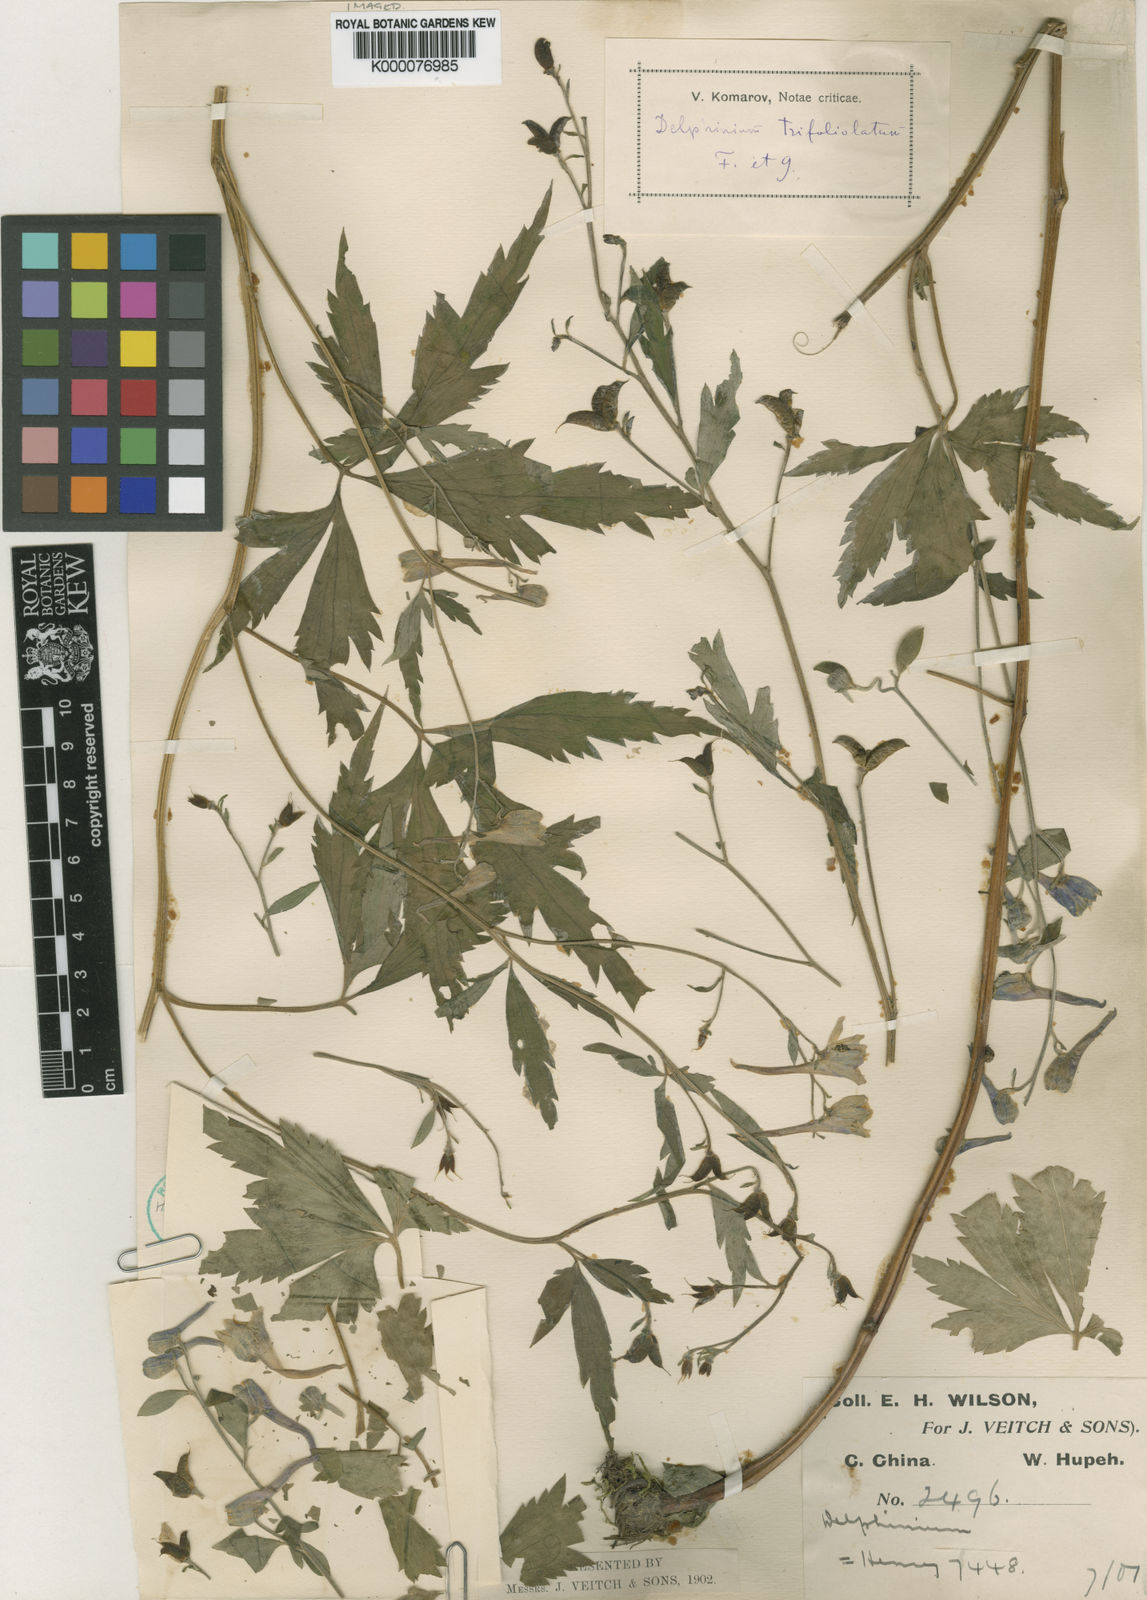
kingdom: Plantae
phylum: Tracheophyta
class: Magnoliopsida
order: Ranunculales
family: Ranunculaceae
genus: Delphinium
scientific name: Delphinium trifoliolatum
